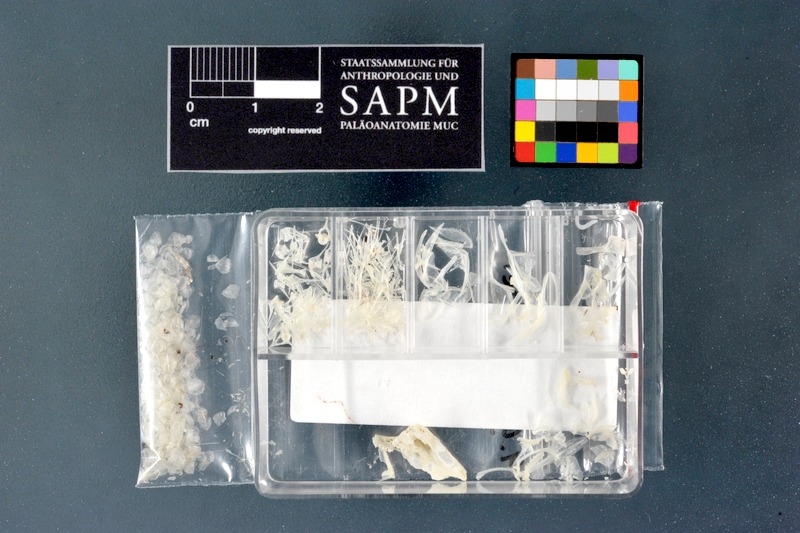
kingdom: Animalia
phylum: Chordata
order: Perciformes
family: Gobiidae
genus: Gobius
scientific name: Gobius niger
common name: Black goby
